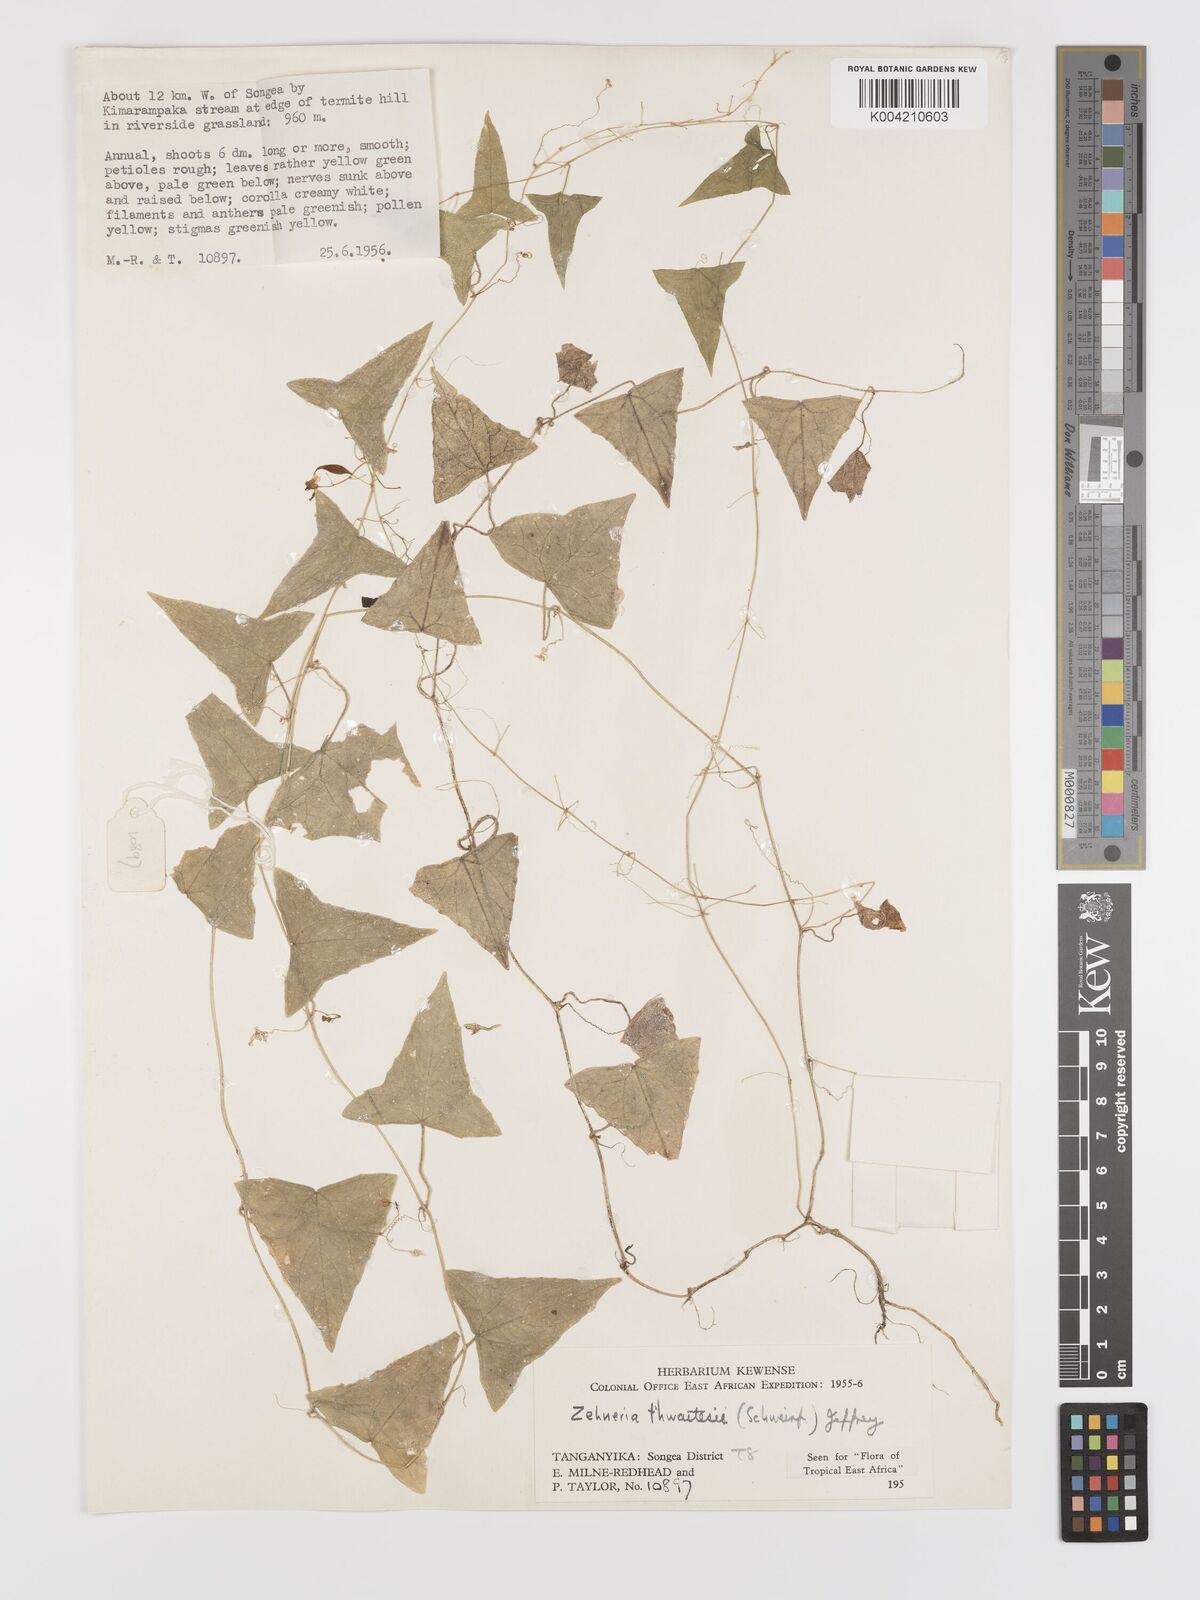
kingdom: Plantae
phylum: Tracheophyta
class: Magnoliopsida
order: Cucurbitales
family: Cucurbitaceae
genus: Zehneria
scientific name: Zehneria thwaitesii
